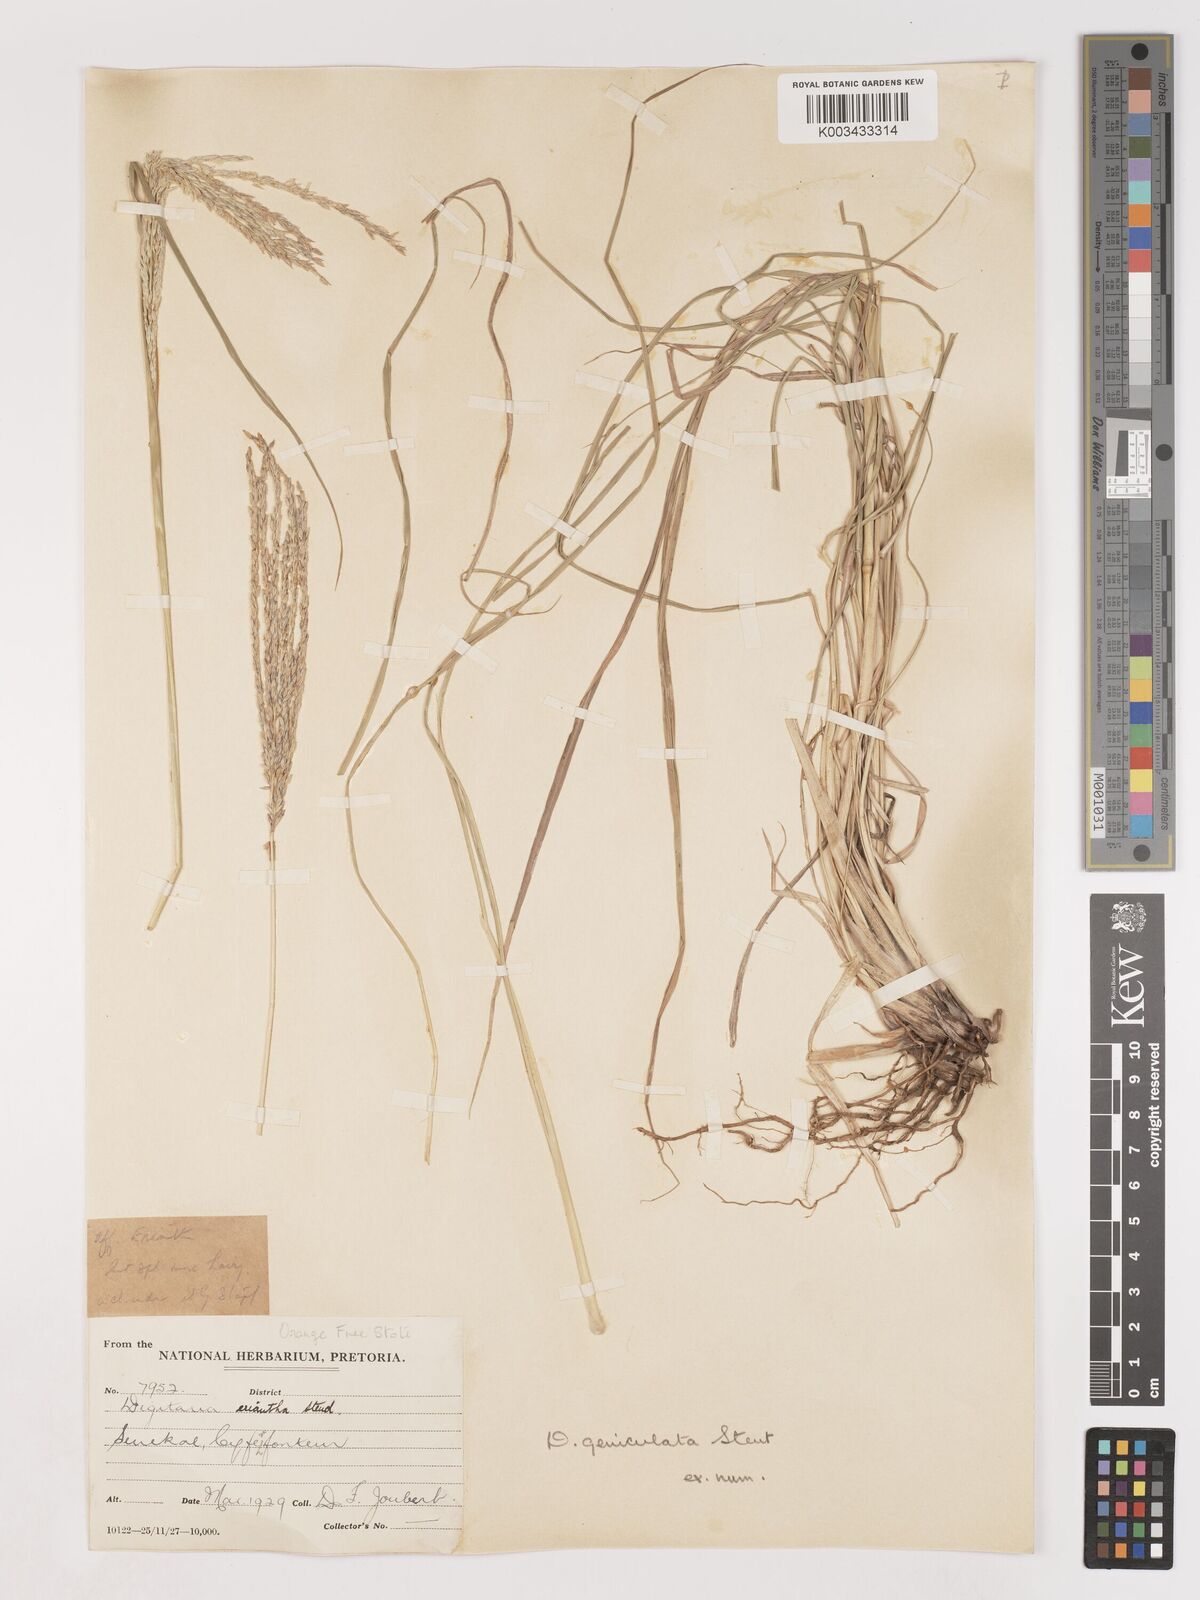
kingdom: Plantae
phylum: Tracheophyta
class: Liliopsida
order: Poales
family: Poaceae
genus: Digitaria
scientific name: Digitaria eriantha
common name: Digitgrass
